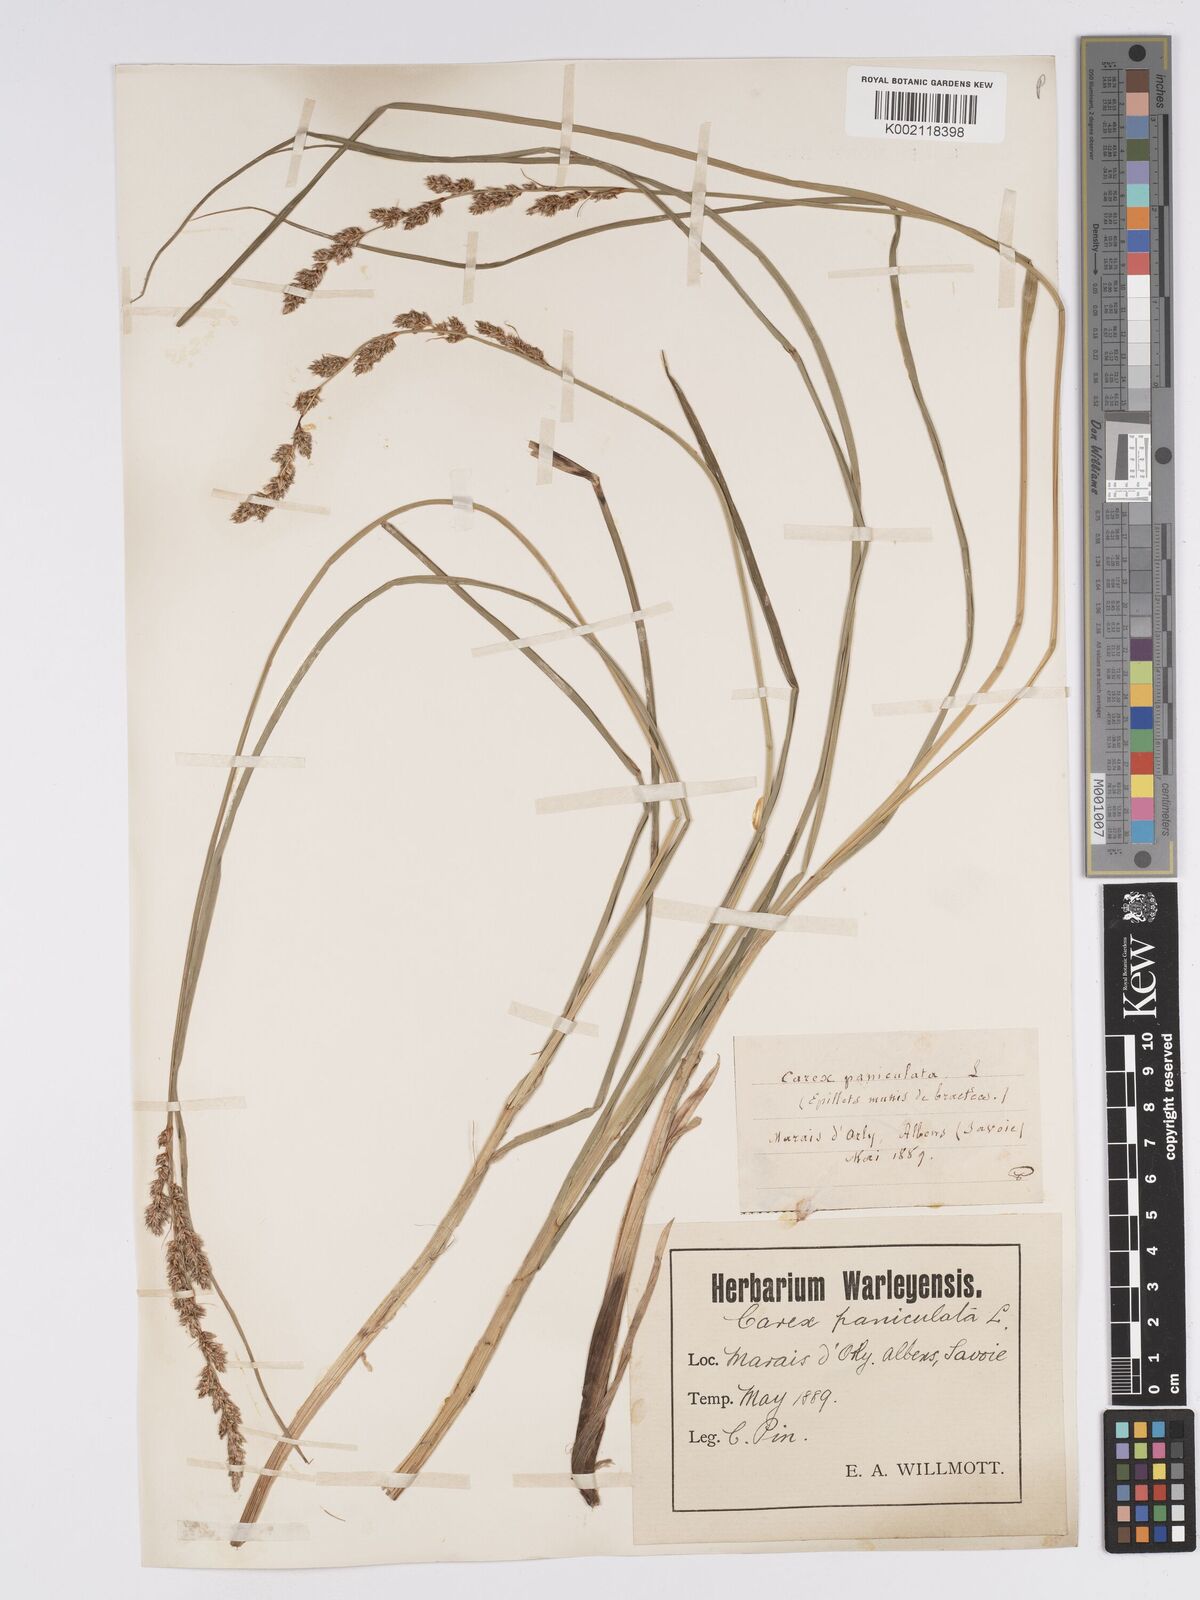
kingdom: Plantae
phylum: Tracheophyta
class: Liliopsida
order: Poales
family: Cyperaceae
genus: Carex
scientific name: Carex paniculata
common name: Greater tussock-sedge
